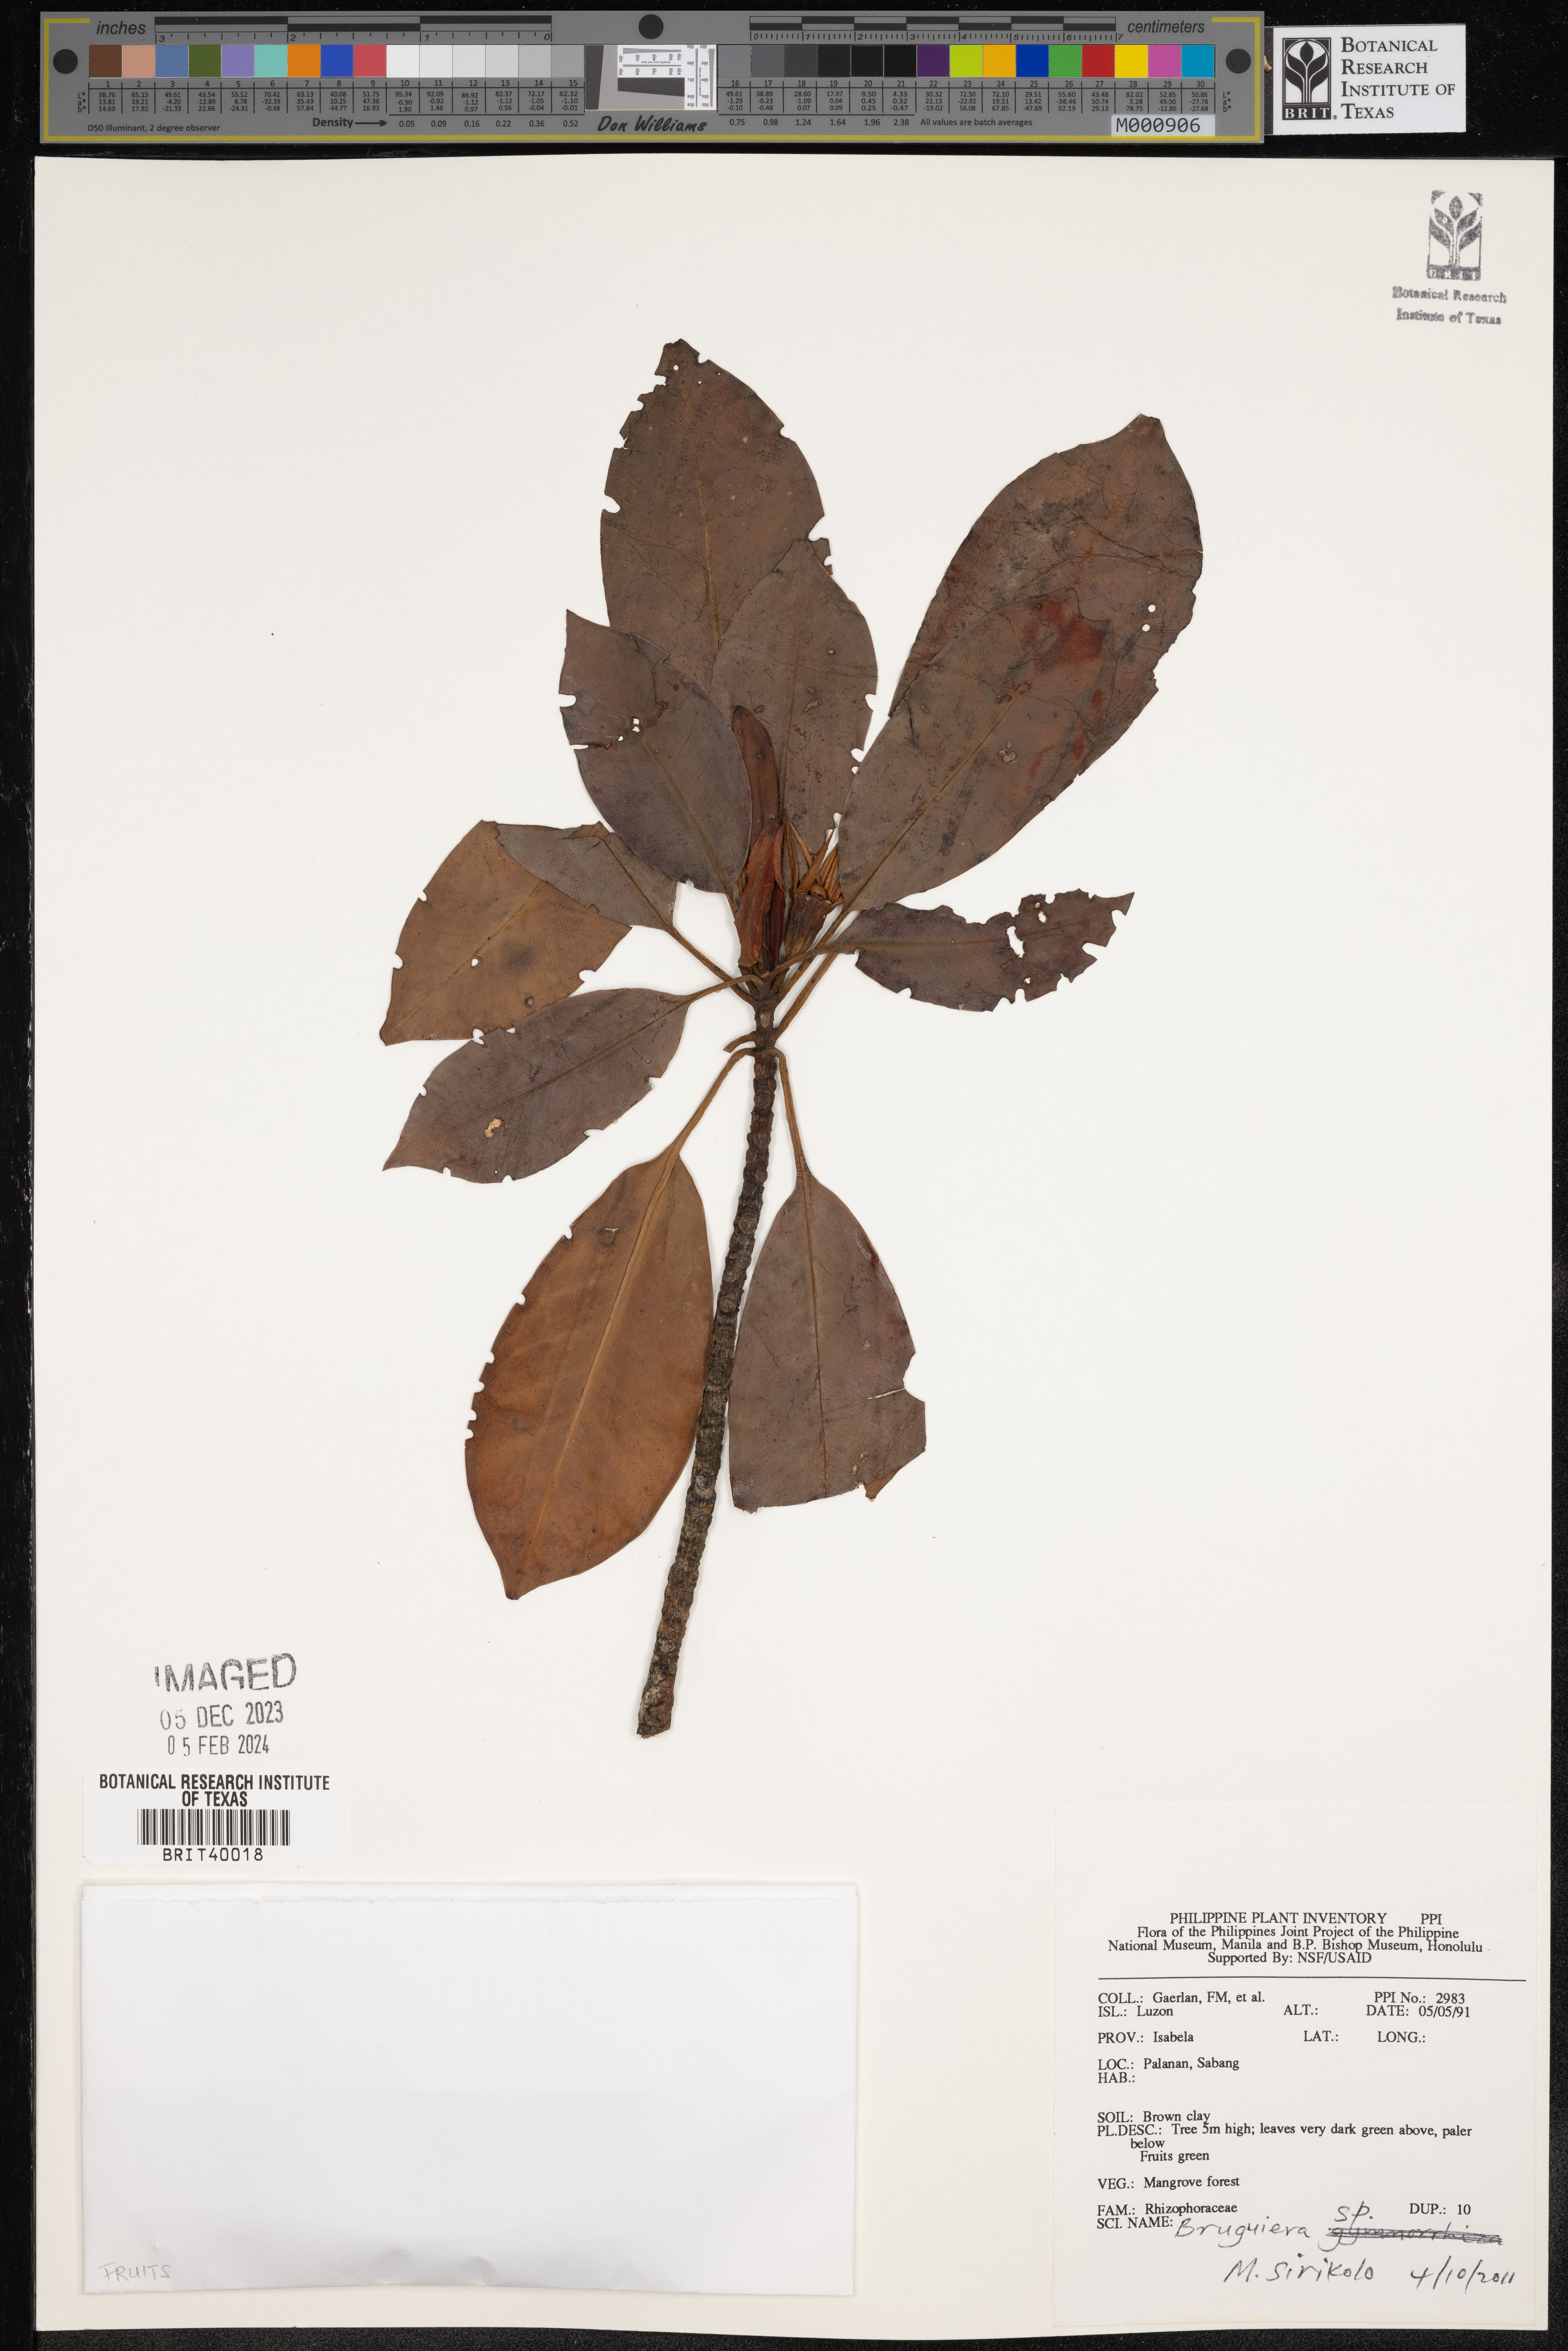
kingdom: Plantae
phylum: Tracheophyta
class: Magnoliopsida
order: Malpighiales
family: Rhizophoraceae
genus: Bruguiera
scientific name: Bruguiera
